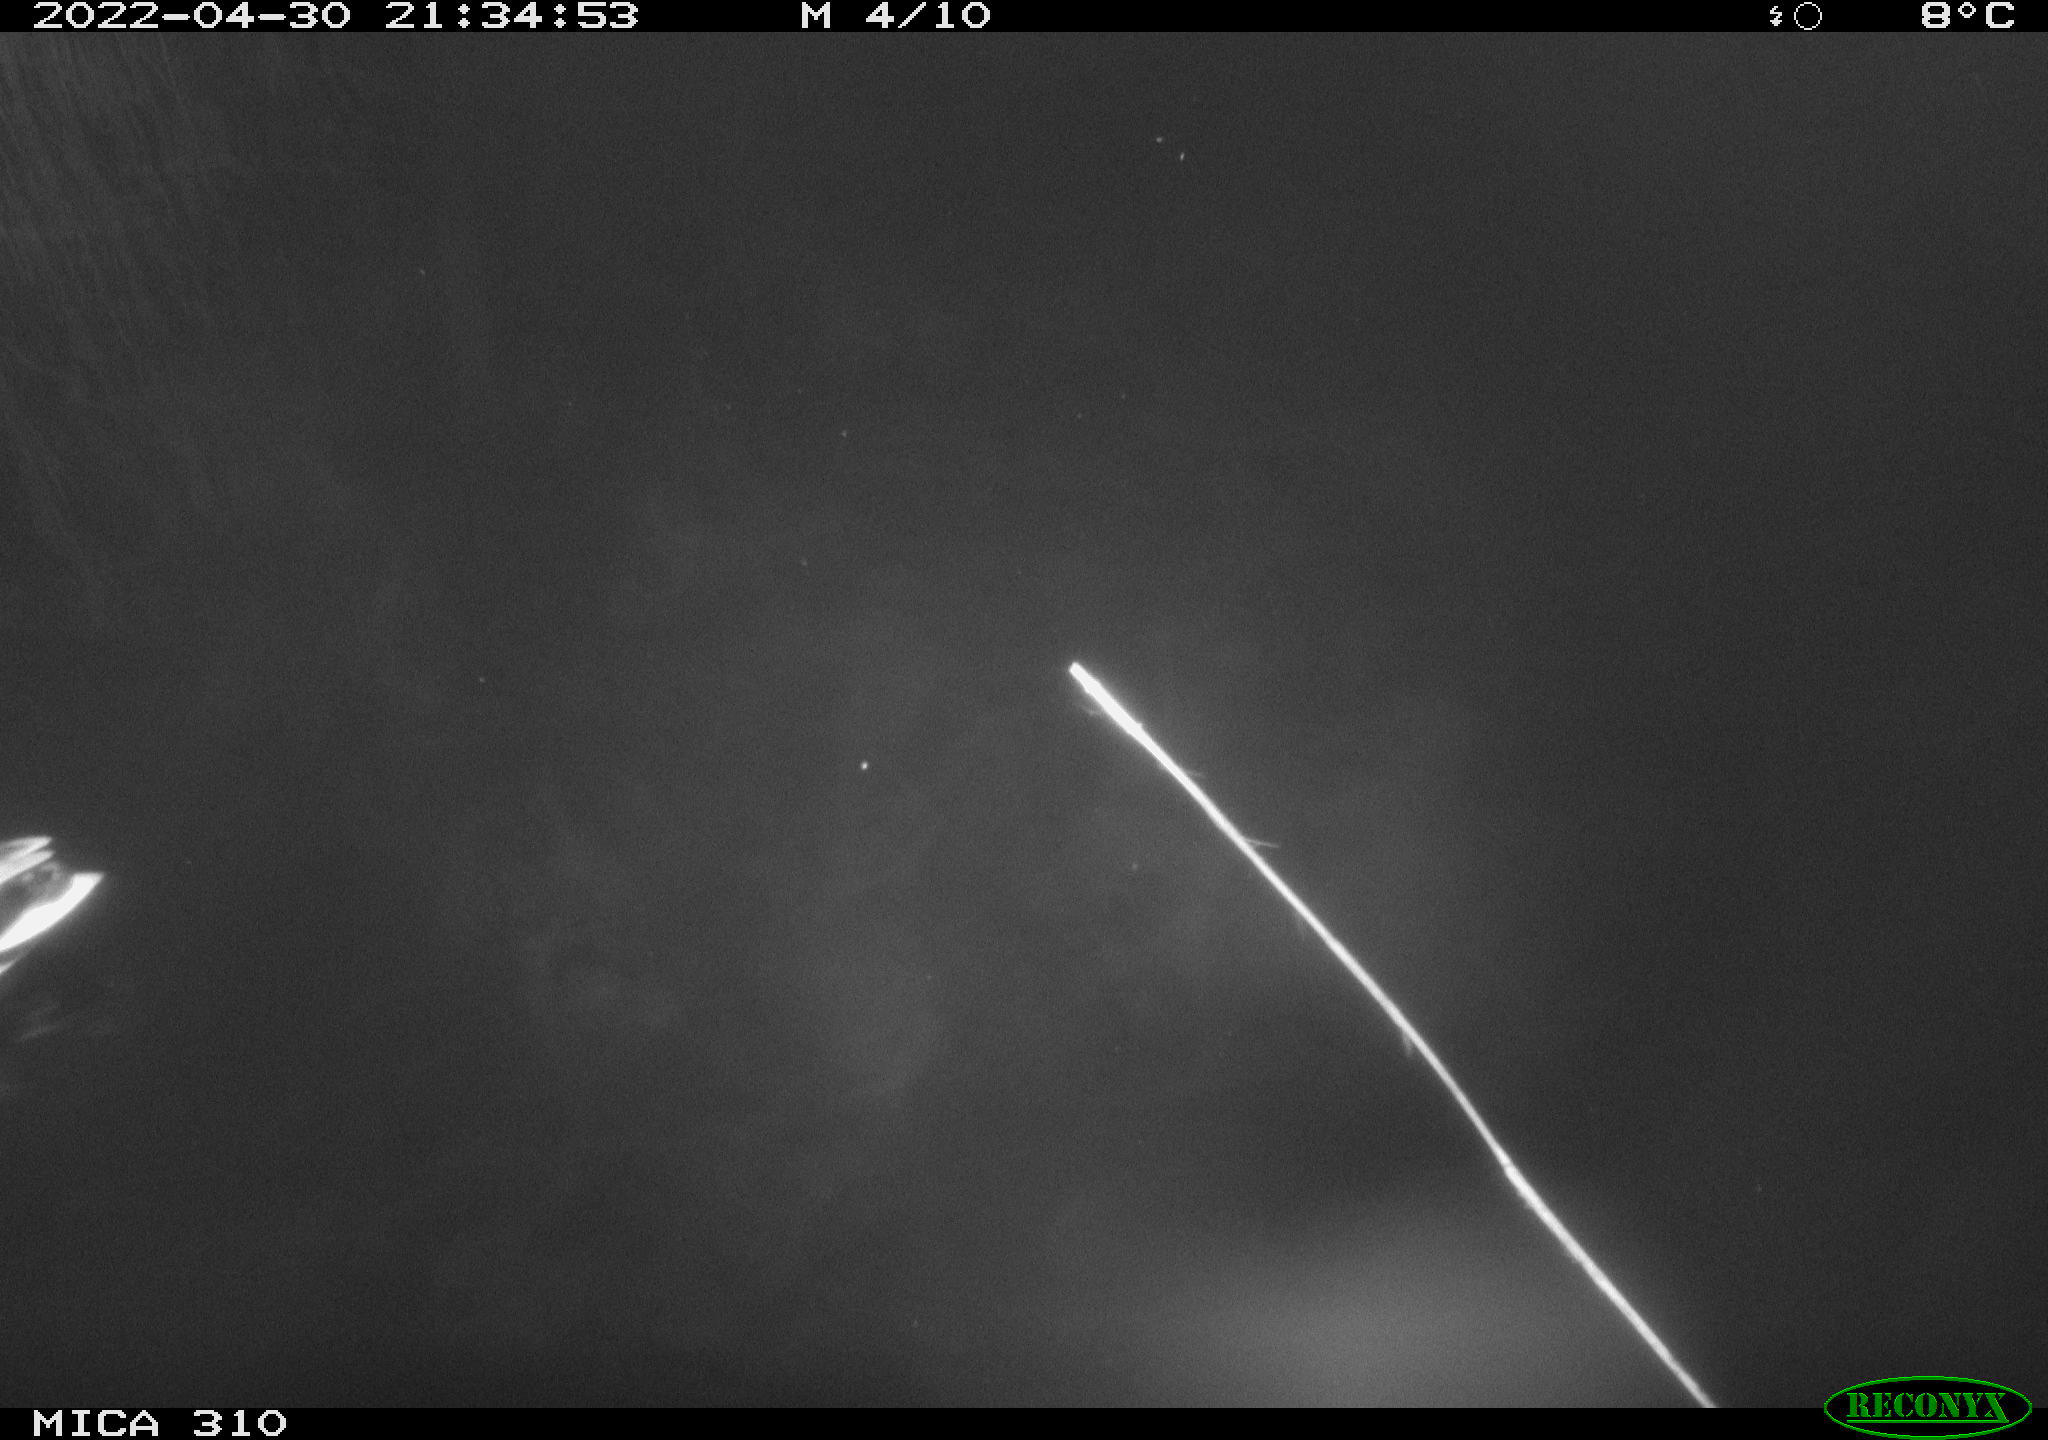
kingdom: Animalia
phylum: Chordata
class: Aves
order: Anseriformes
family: Anatidae
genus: Anas
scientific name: Anas platyrhynchos
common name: Mallard
